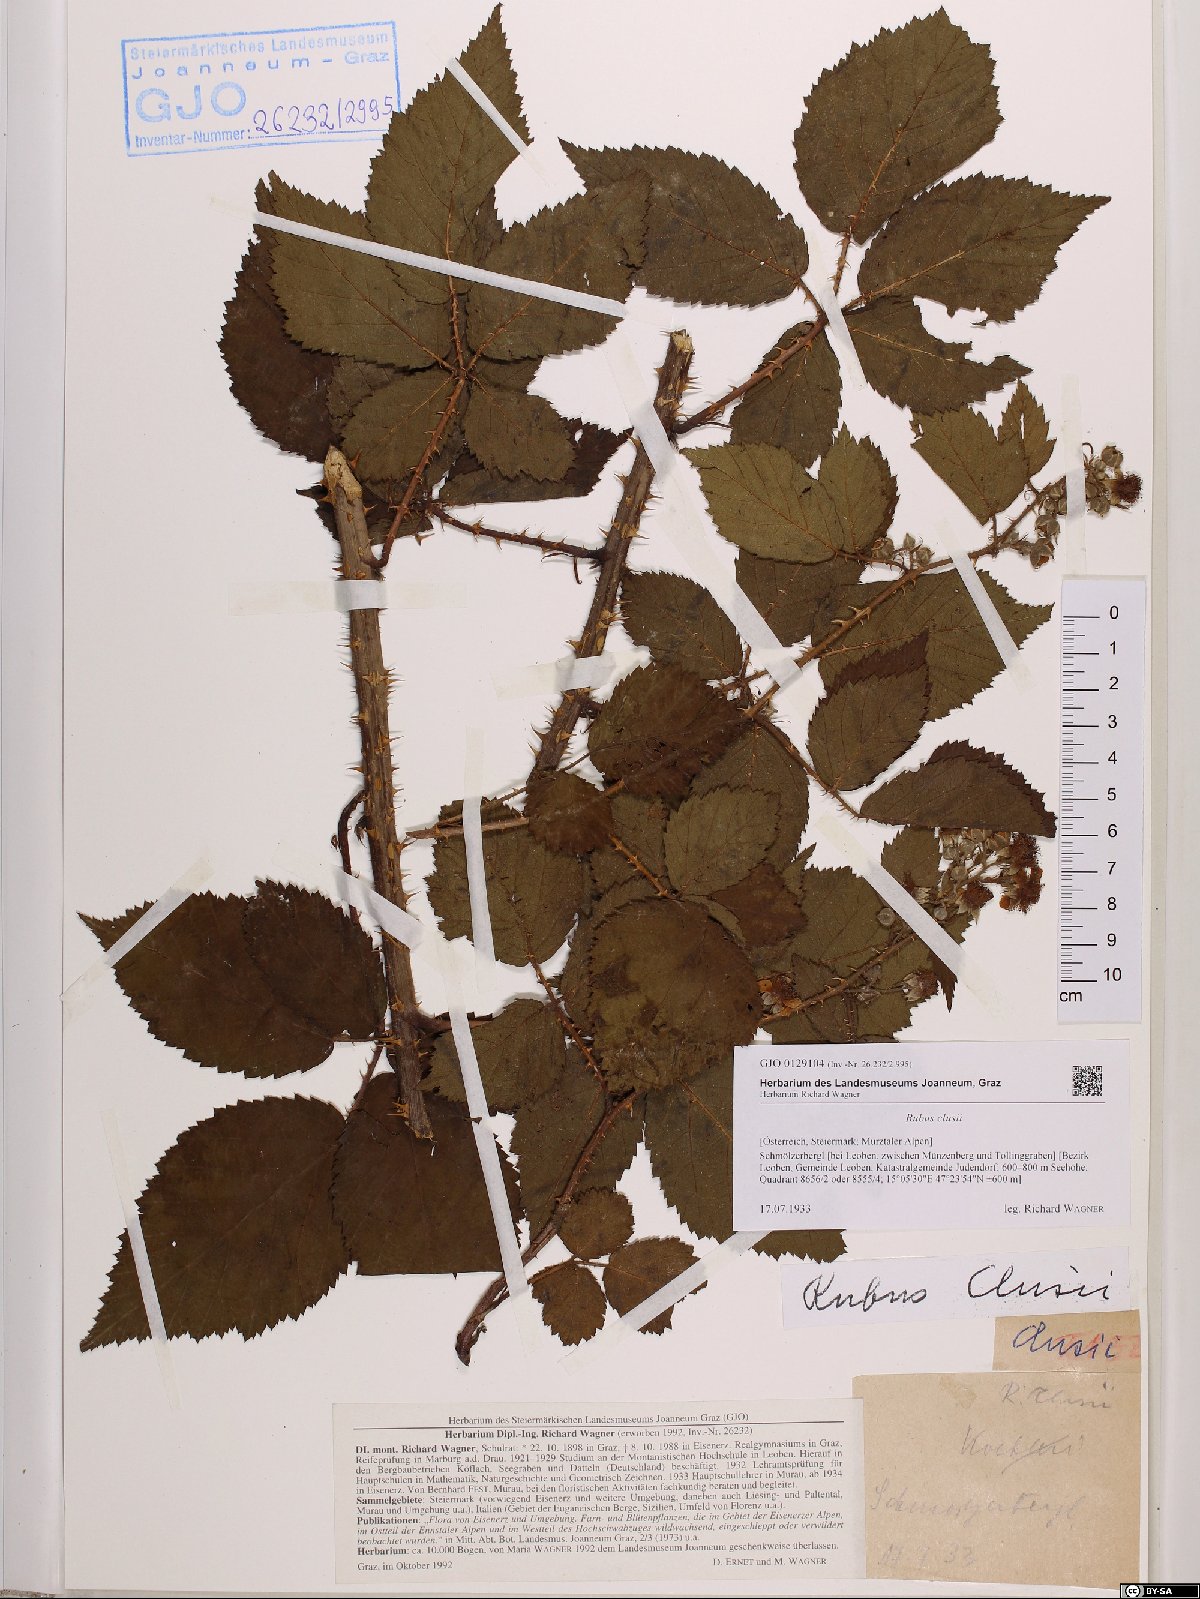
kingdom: Plantae
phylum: Tracheophyta
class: Magnoliopsida
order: Rosales
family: Rosaceae
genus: Rubus
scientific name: Rubus clusii
